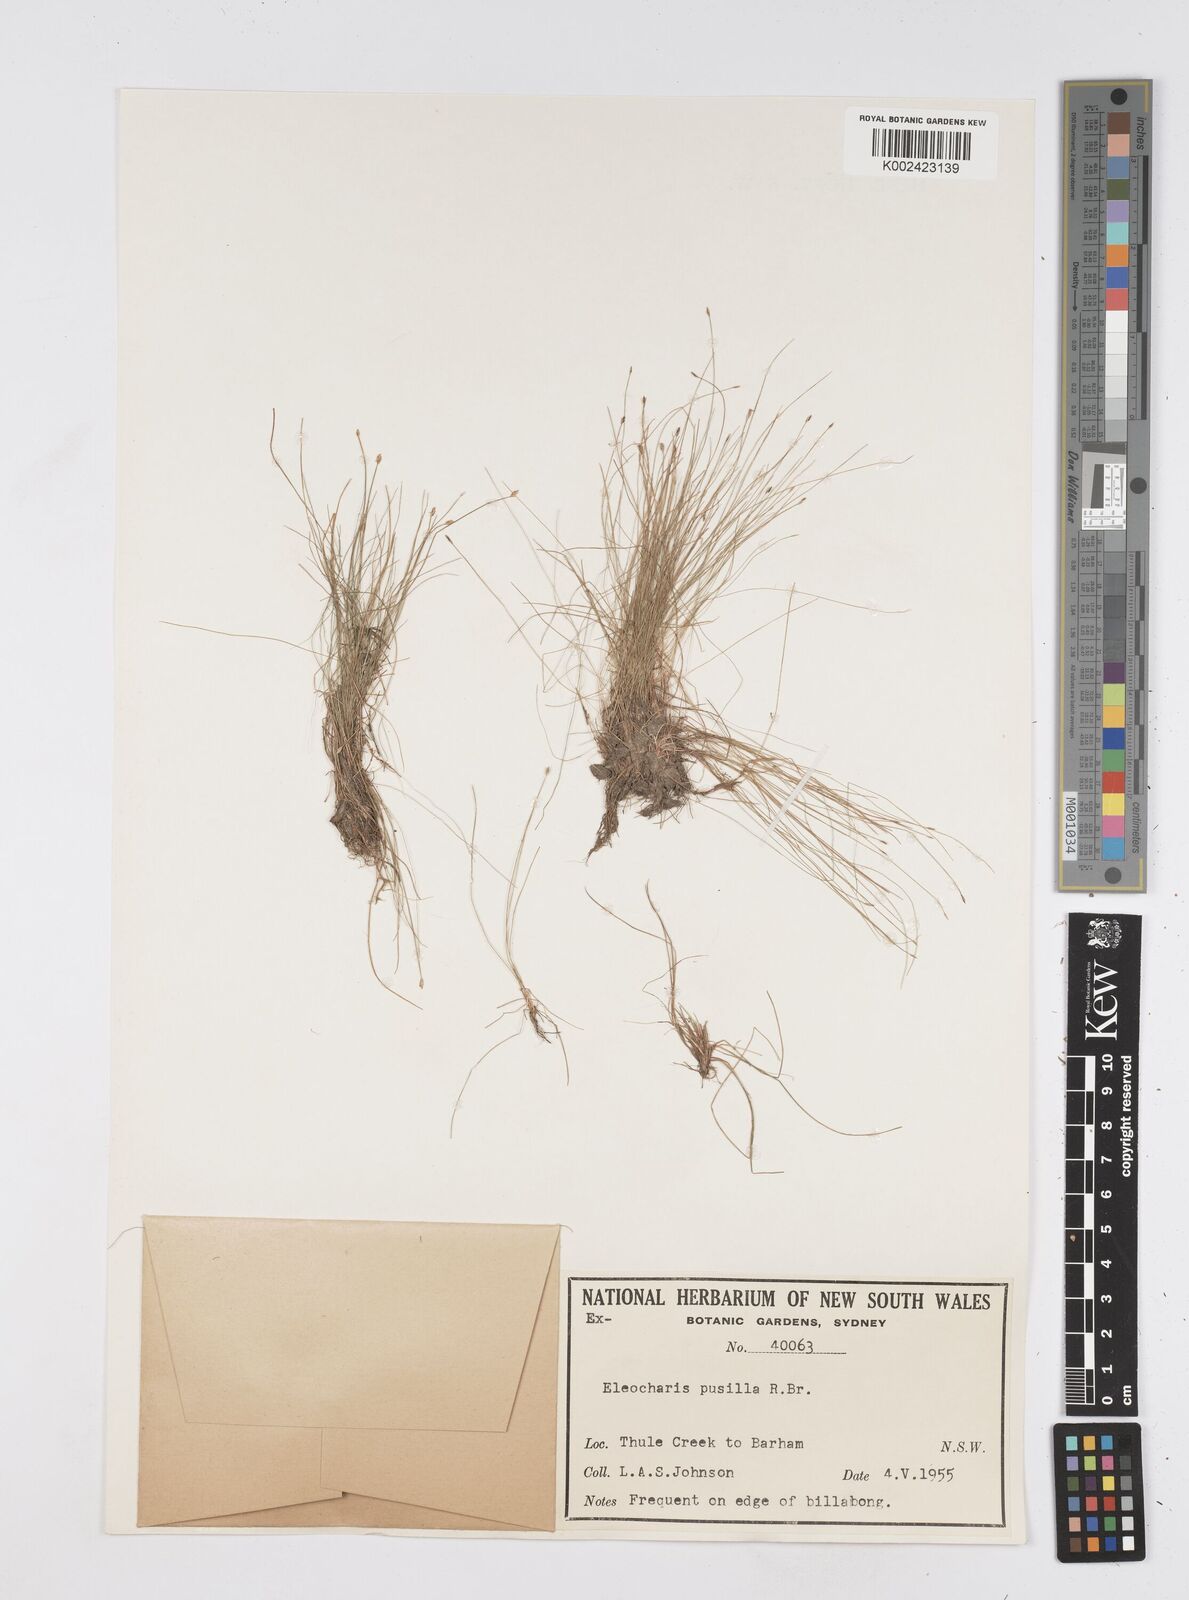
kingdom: Plantae
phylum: Tracheophyta
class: Liliopsida
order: Poales
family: Cyperaceae
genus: Eleocharis
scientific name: Eleocharis pusilla
